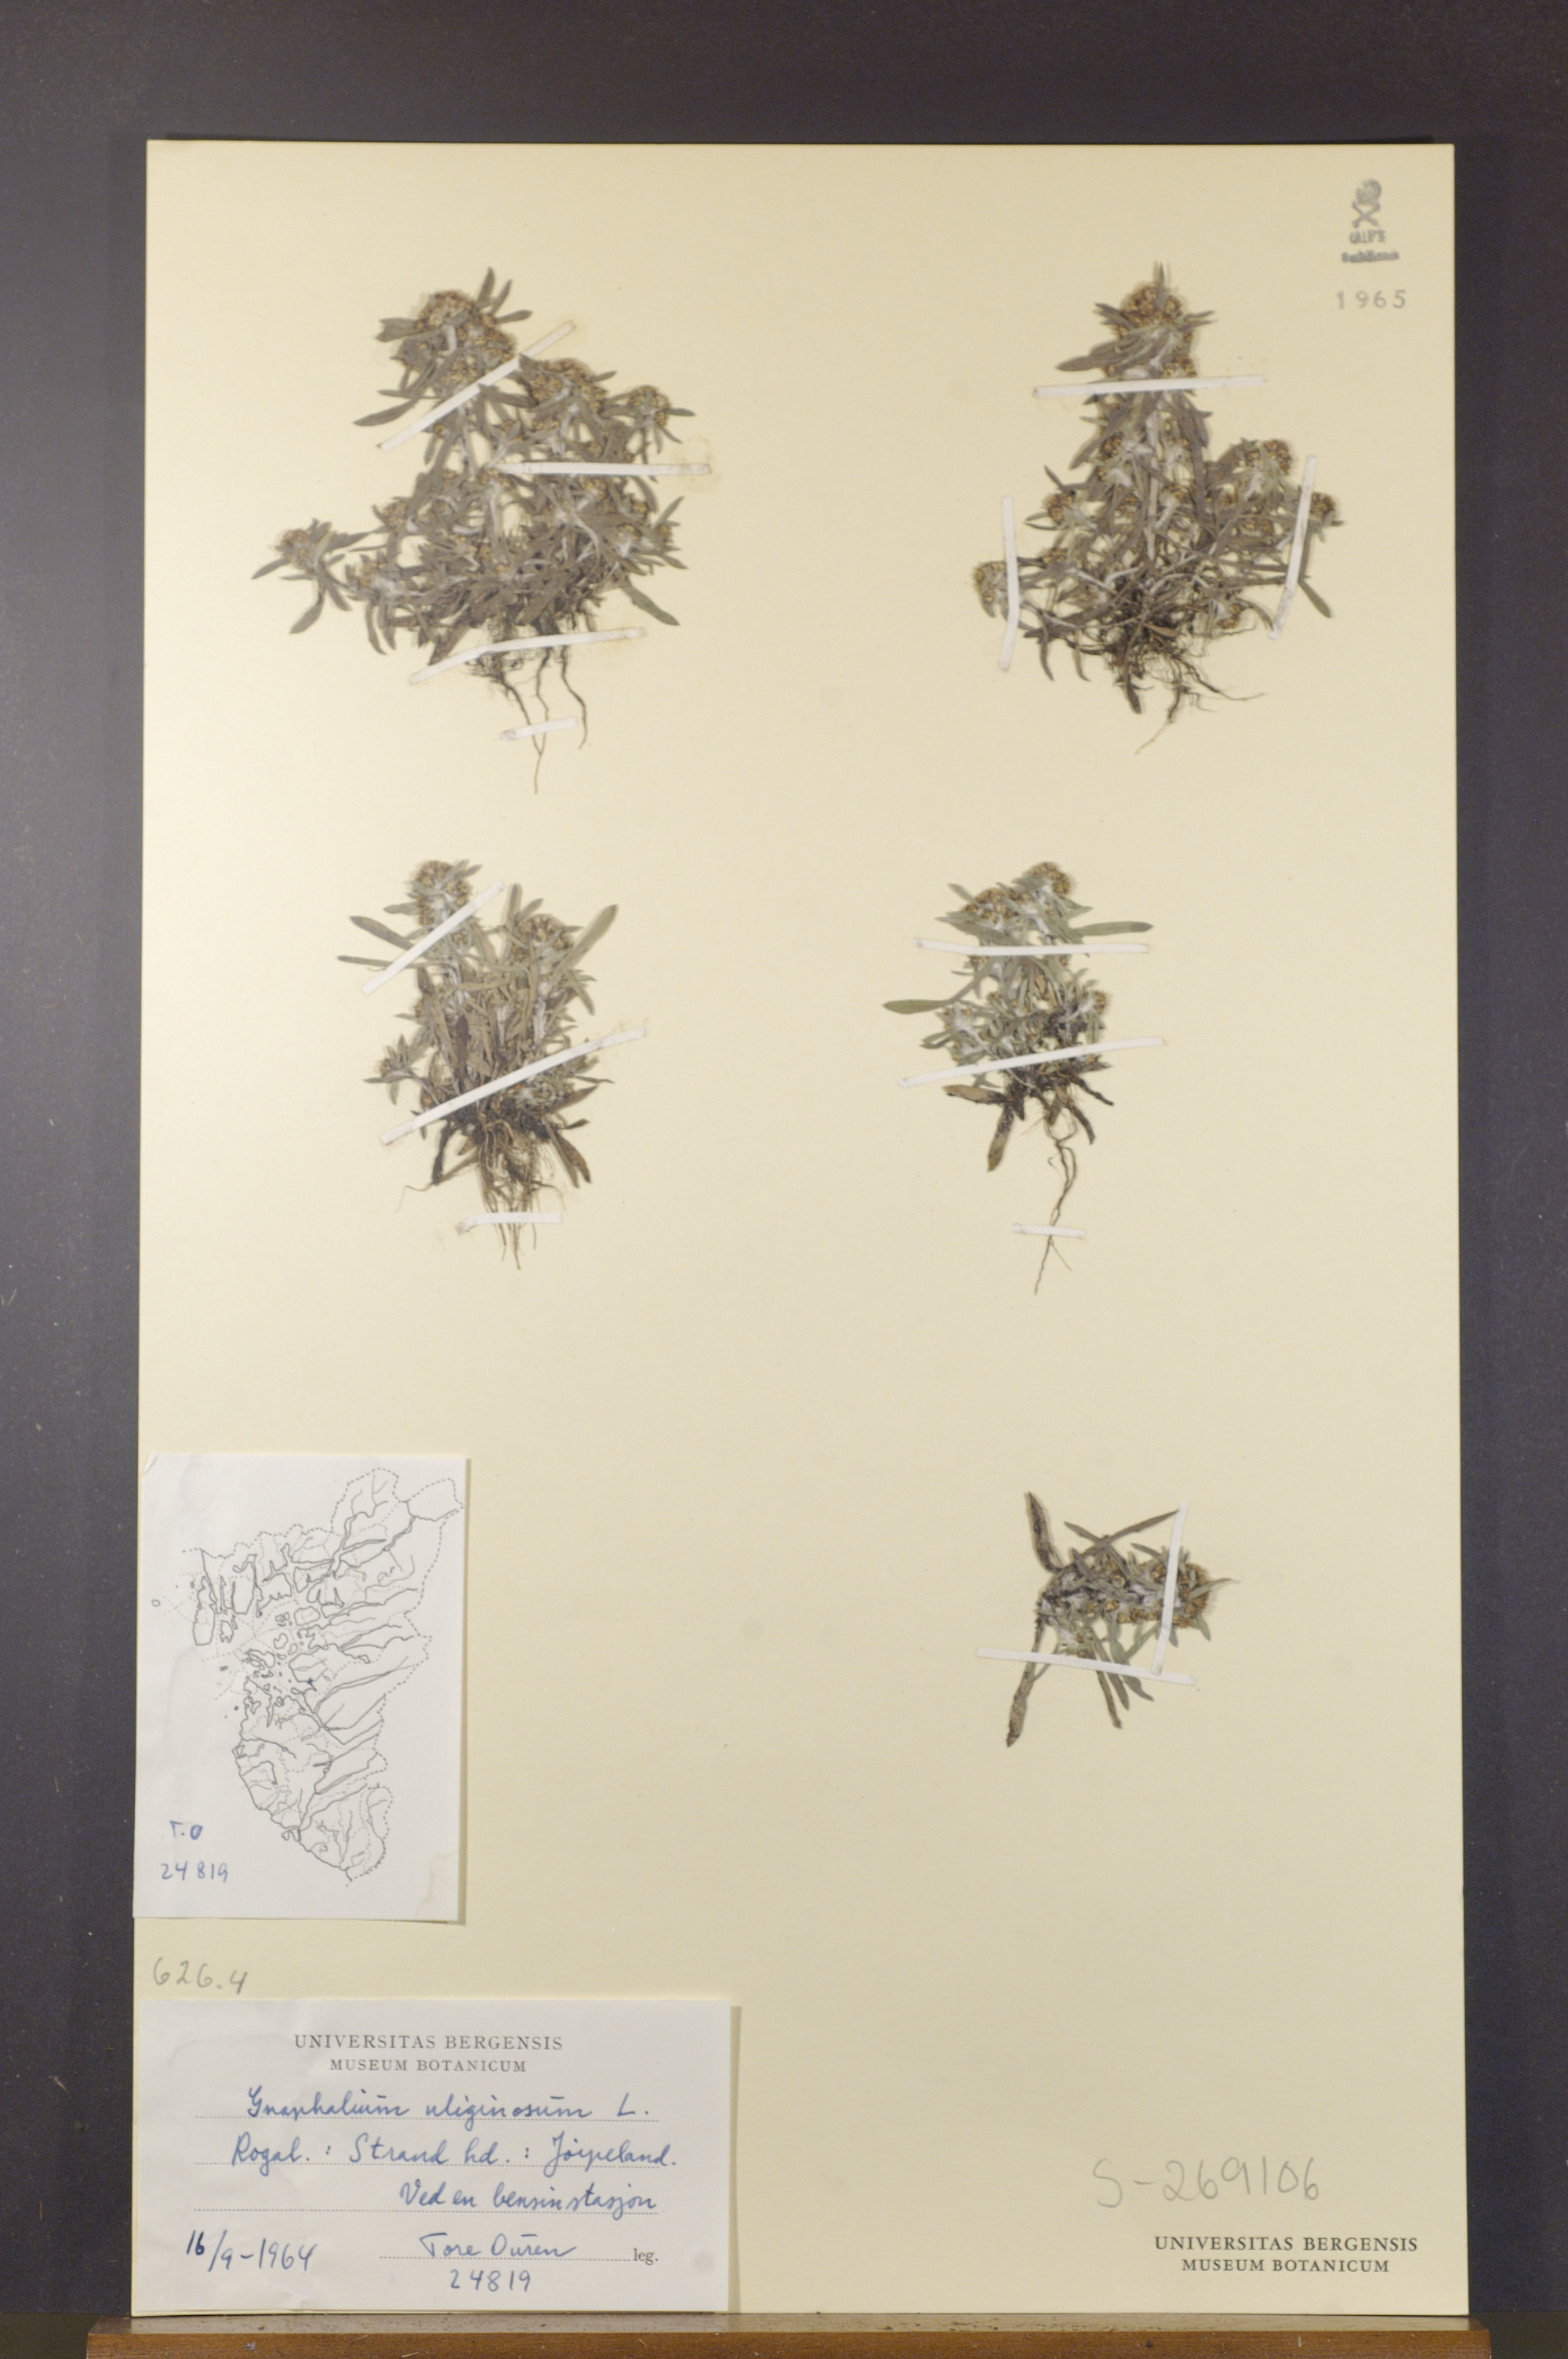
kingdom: Plantae
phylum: Tracheophyta
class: Magnoliopsida
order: Asterales
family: Asteraceae
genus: Gnaphalium
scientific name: Gnaphalium uliginosum
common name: Marsh cudweed
